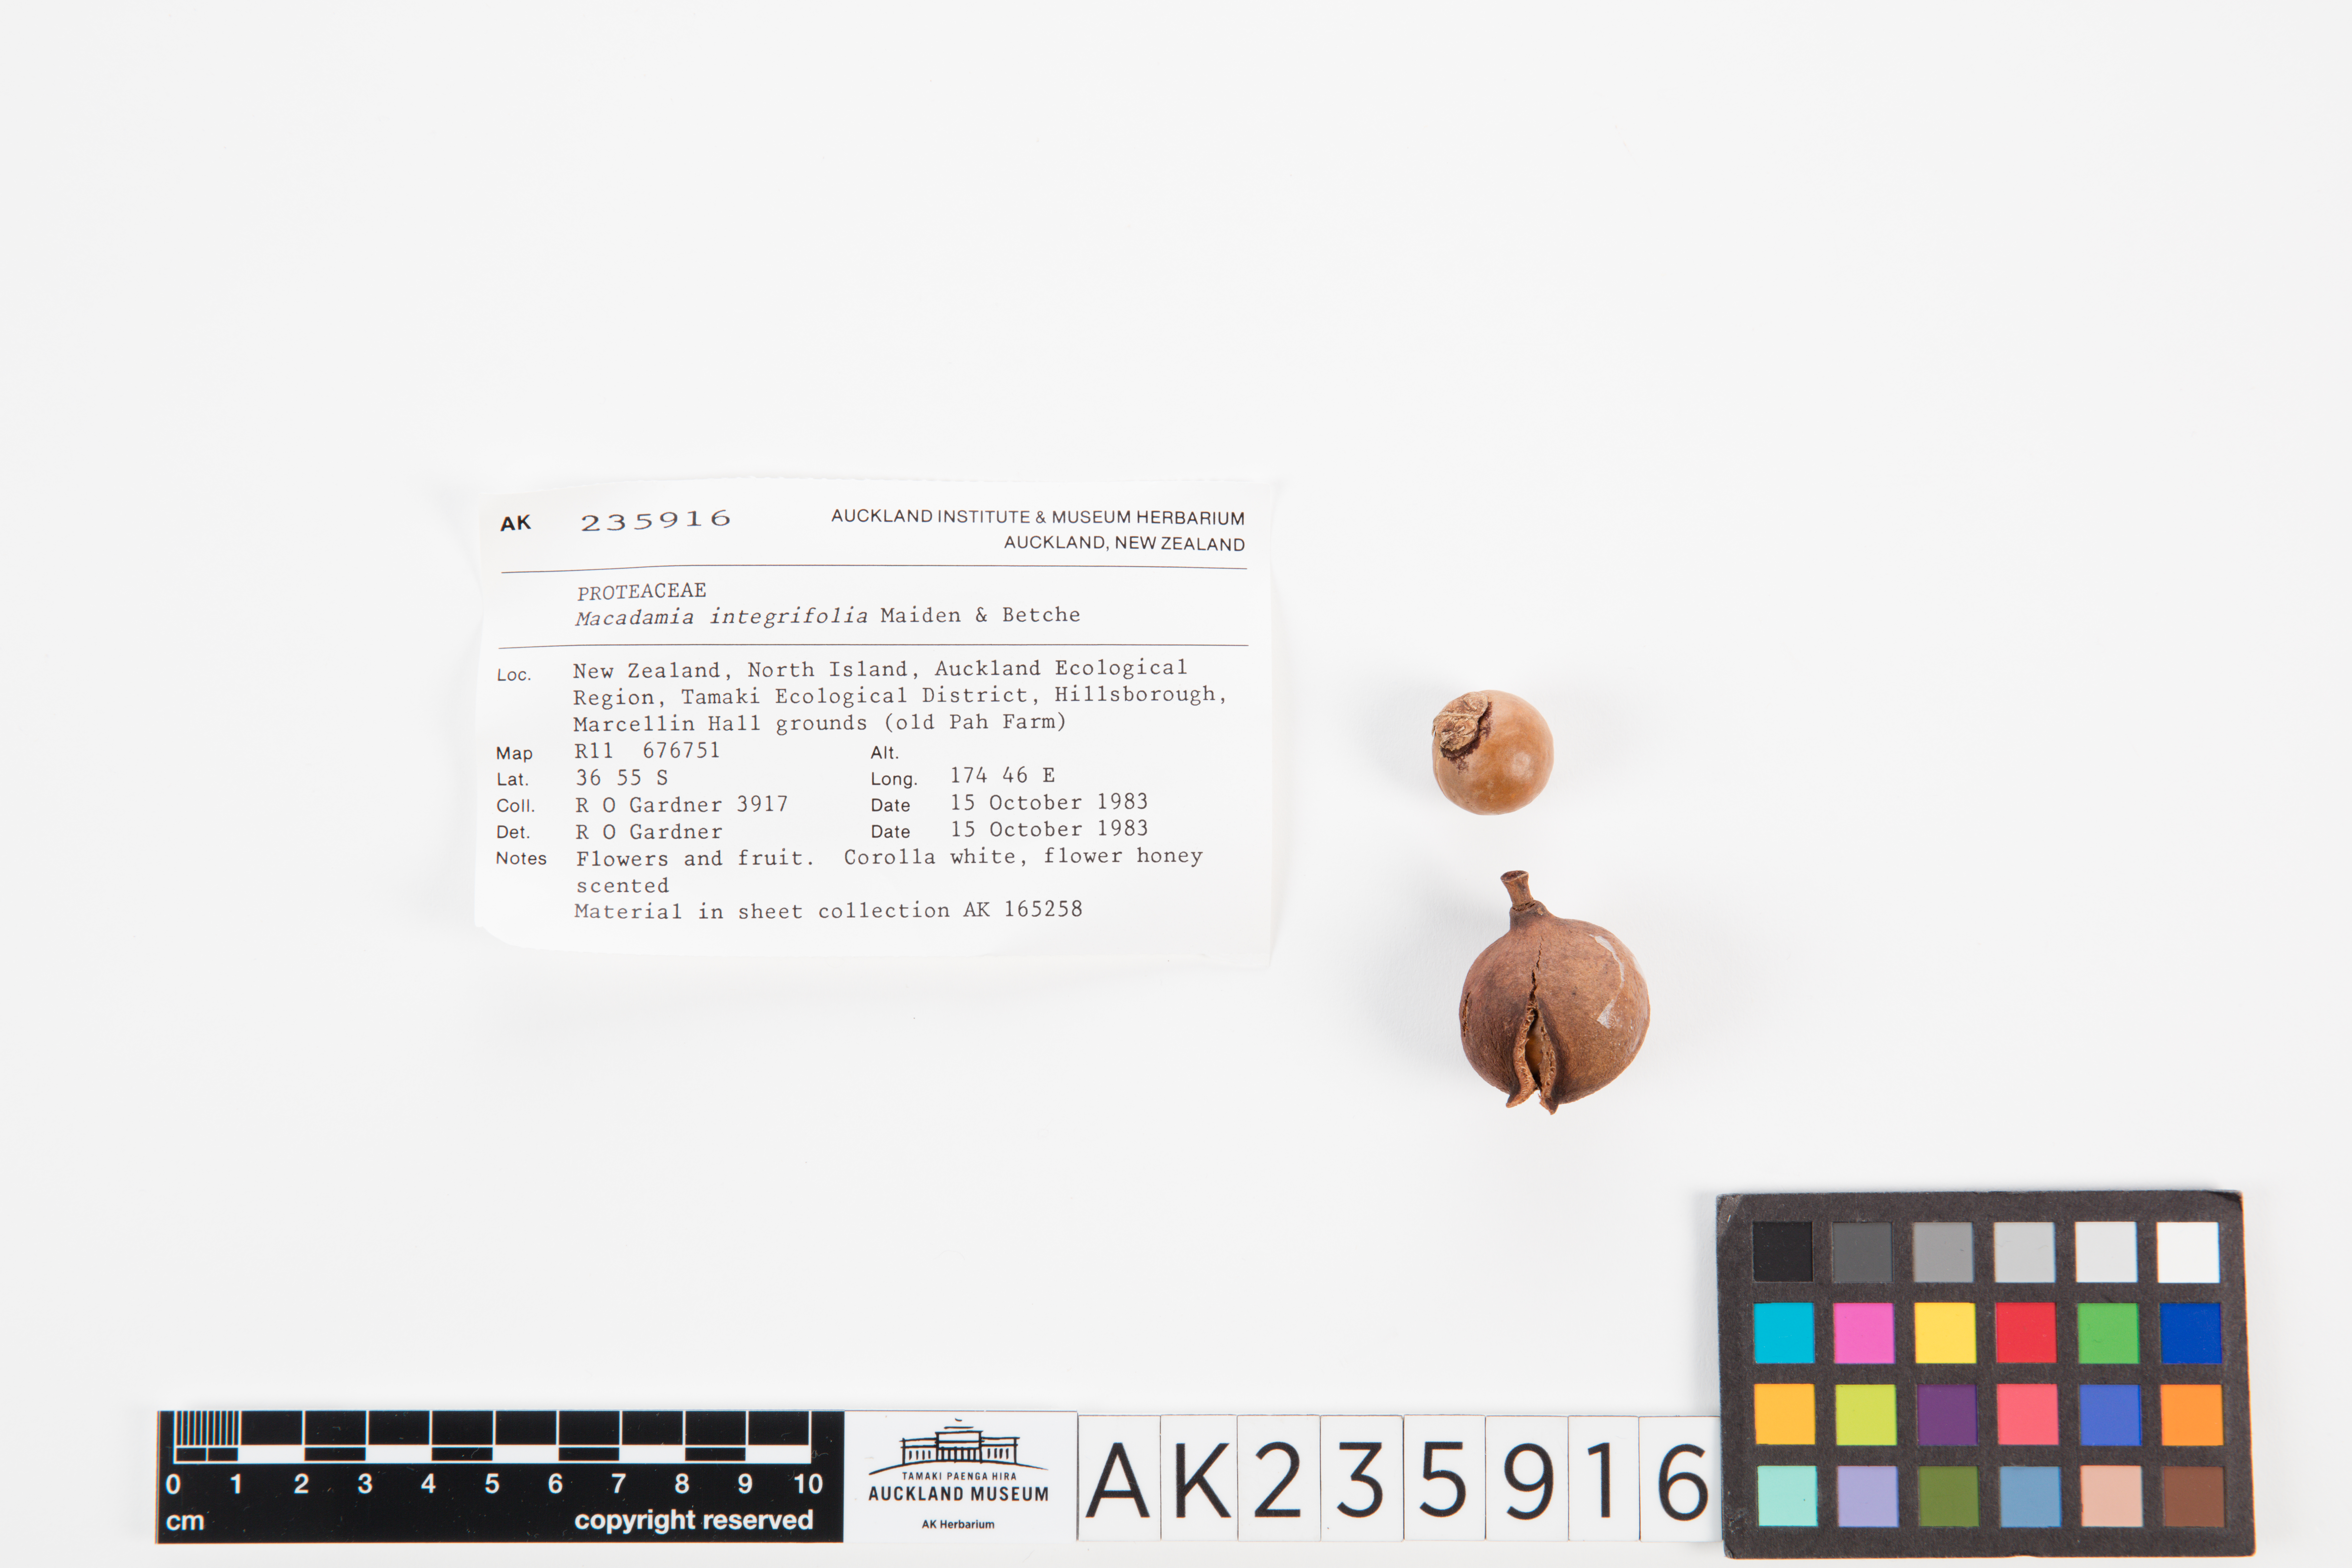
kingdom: Plantae
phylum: Tracheophyta
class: Magnoliopsida
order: Proteales
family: Proteaceae
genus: Macadamia
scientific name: Macadamia integrifolia
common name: Macadamia
